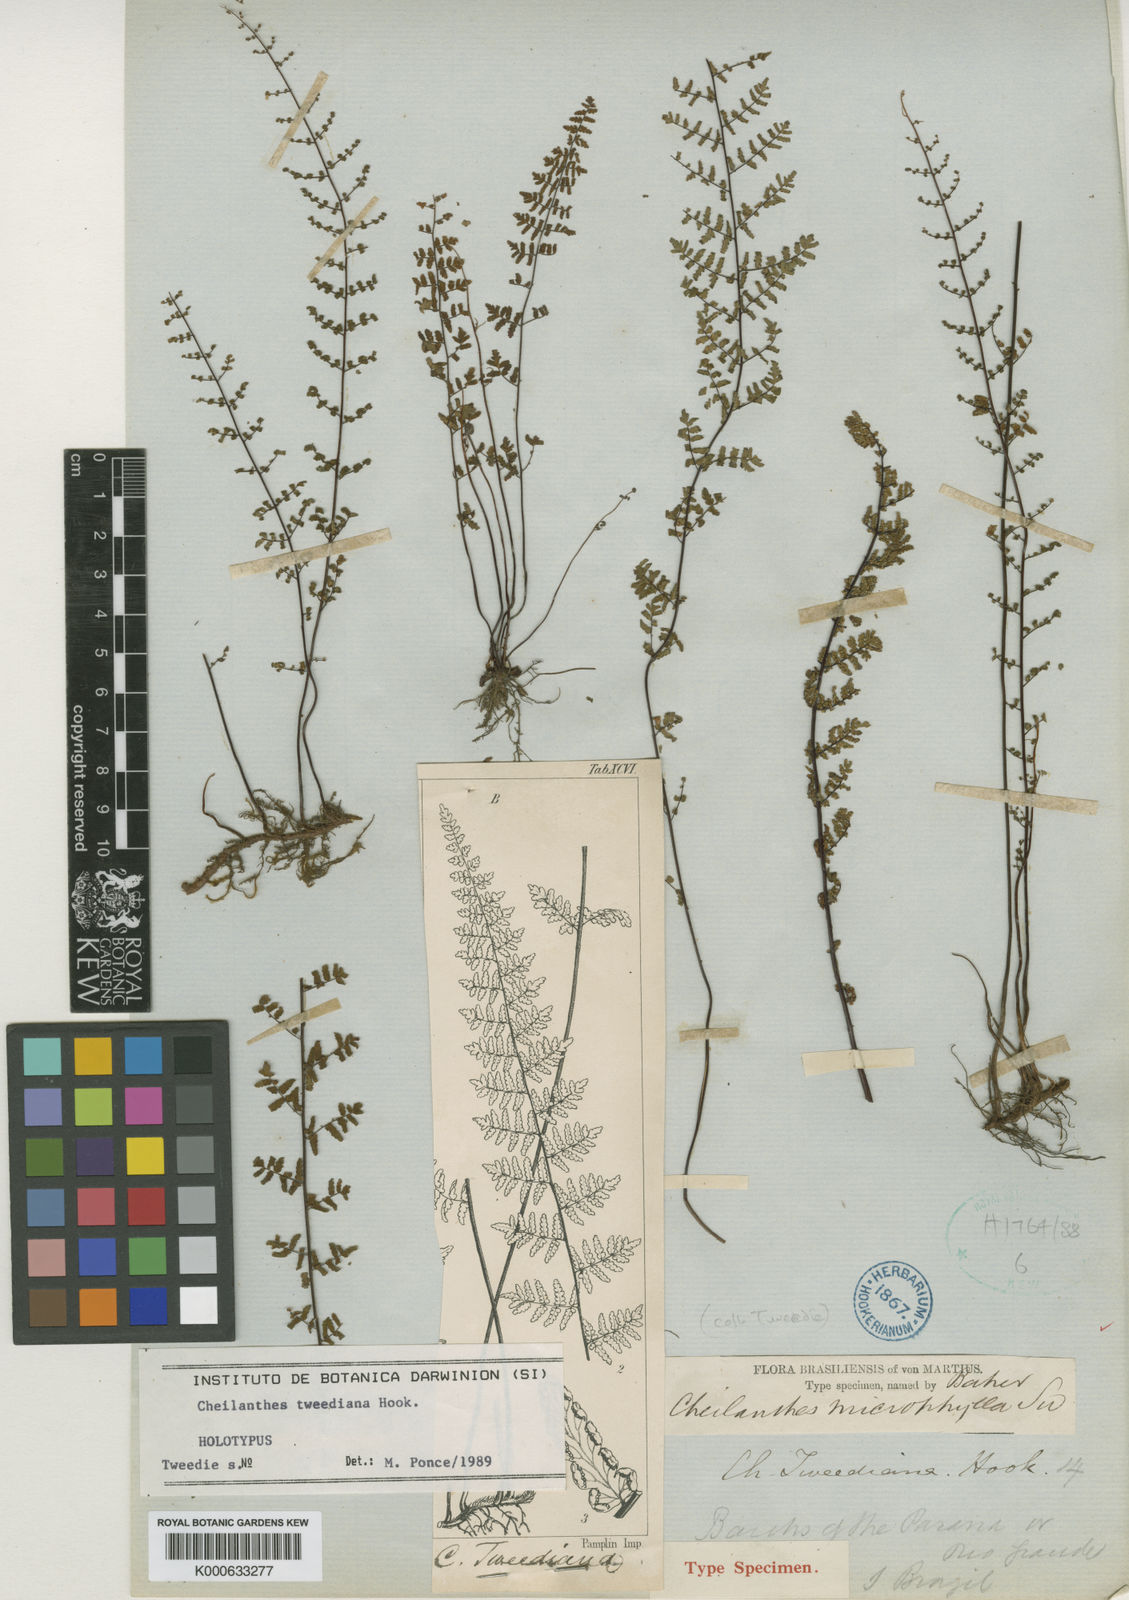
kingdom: Plantae
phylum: Tracheophyta
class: Polypodiopsida
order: Polypodiales
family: Pteridaceae
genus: Cheilanthes
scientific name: Cheilanthes
